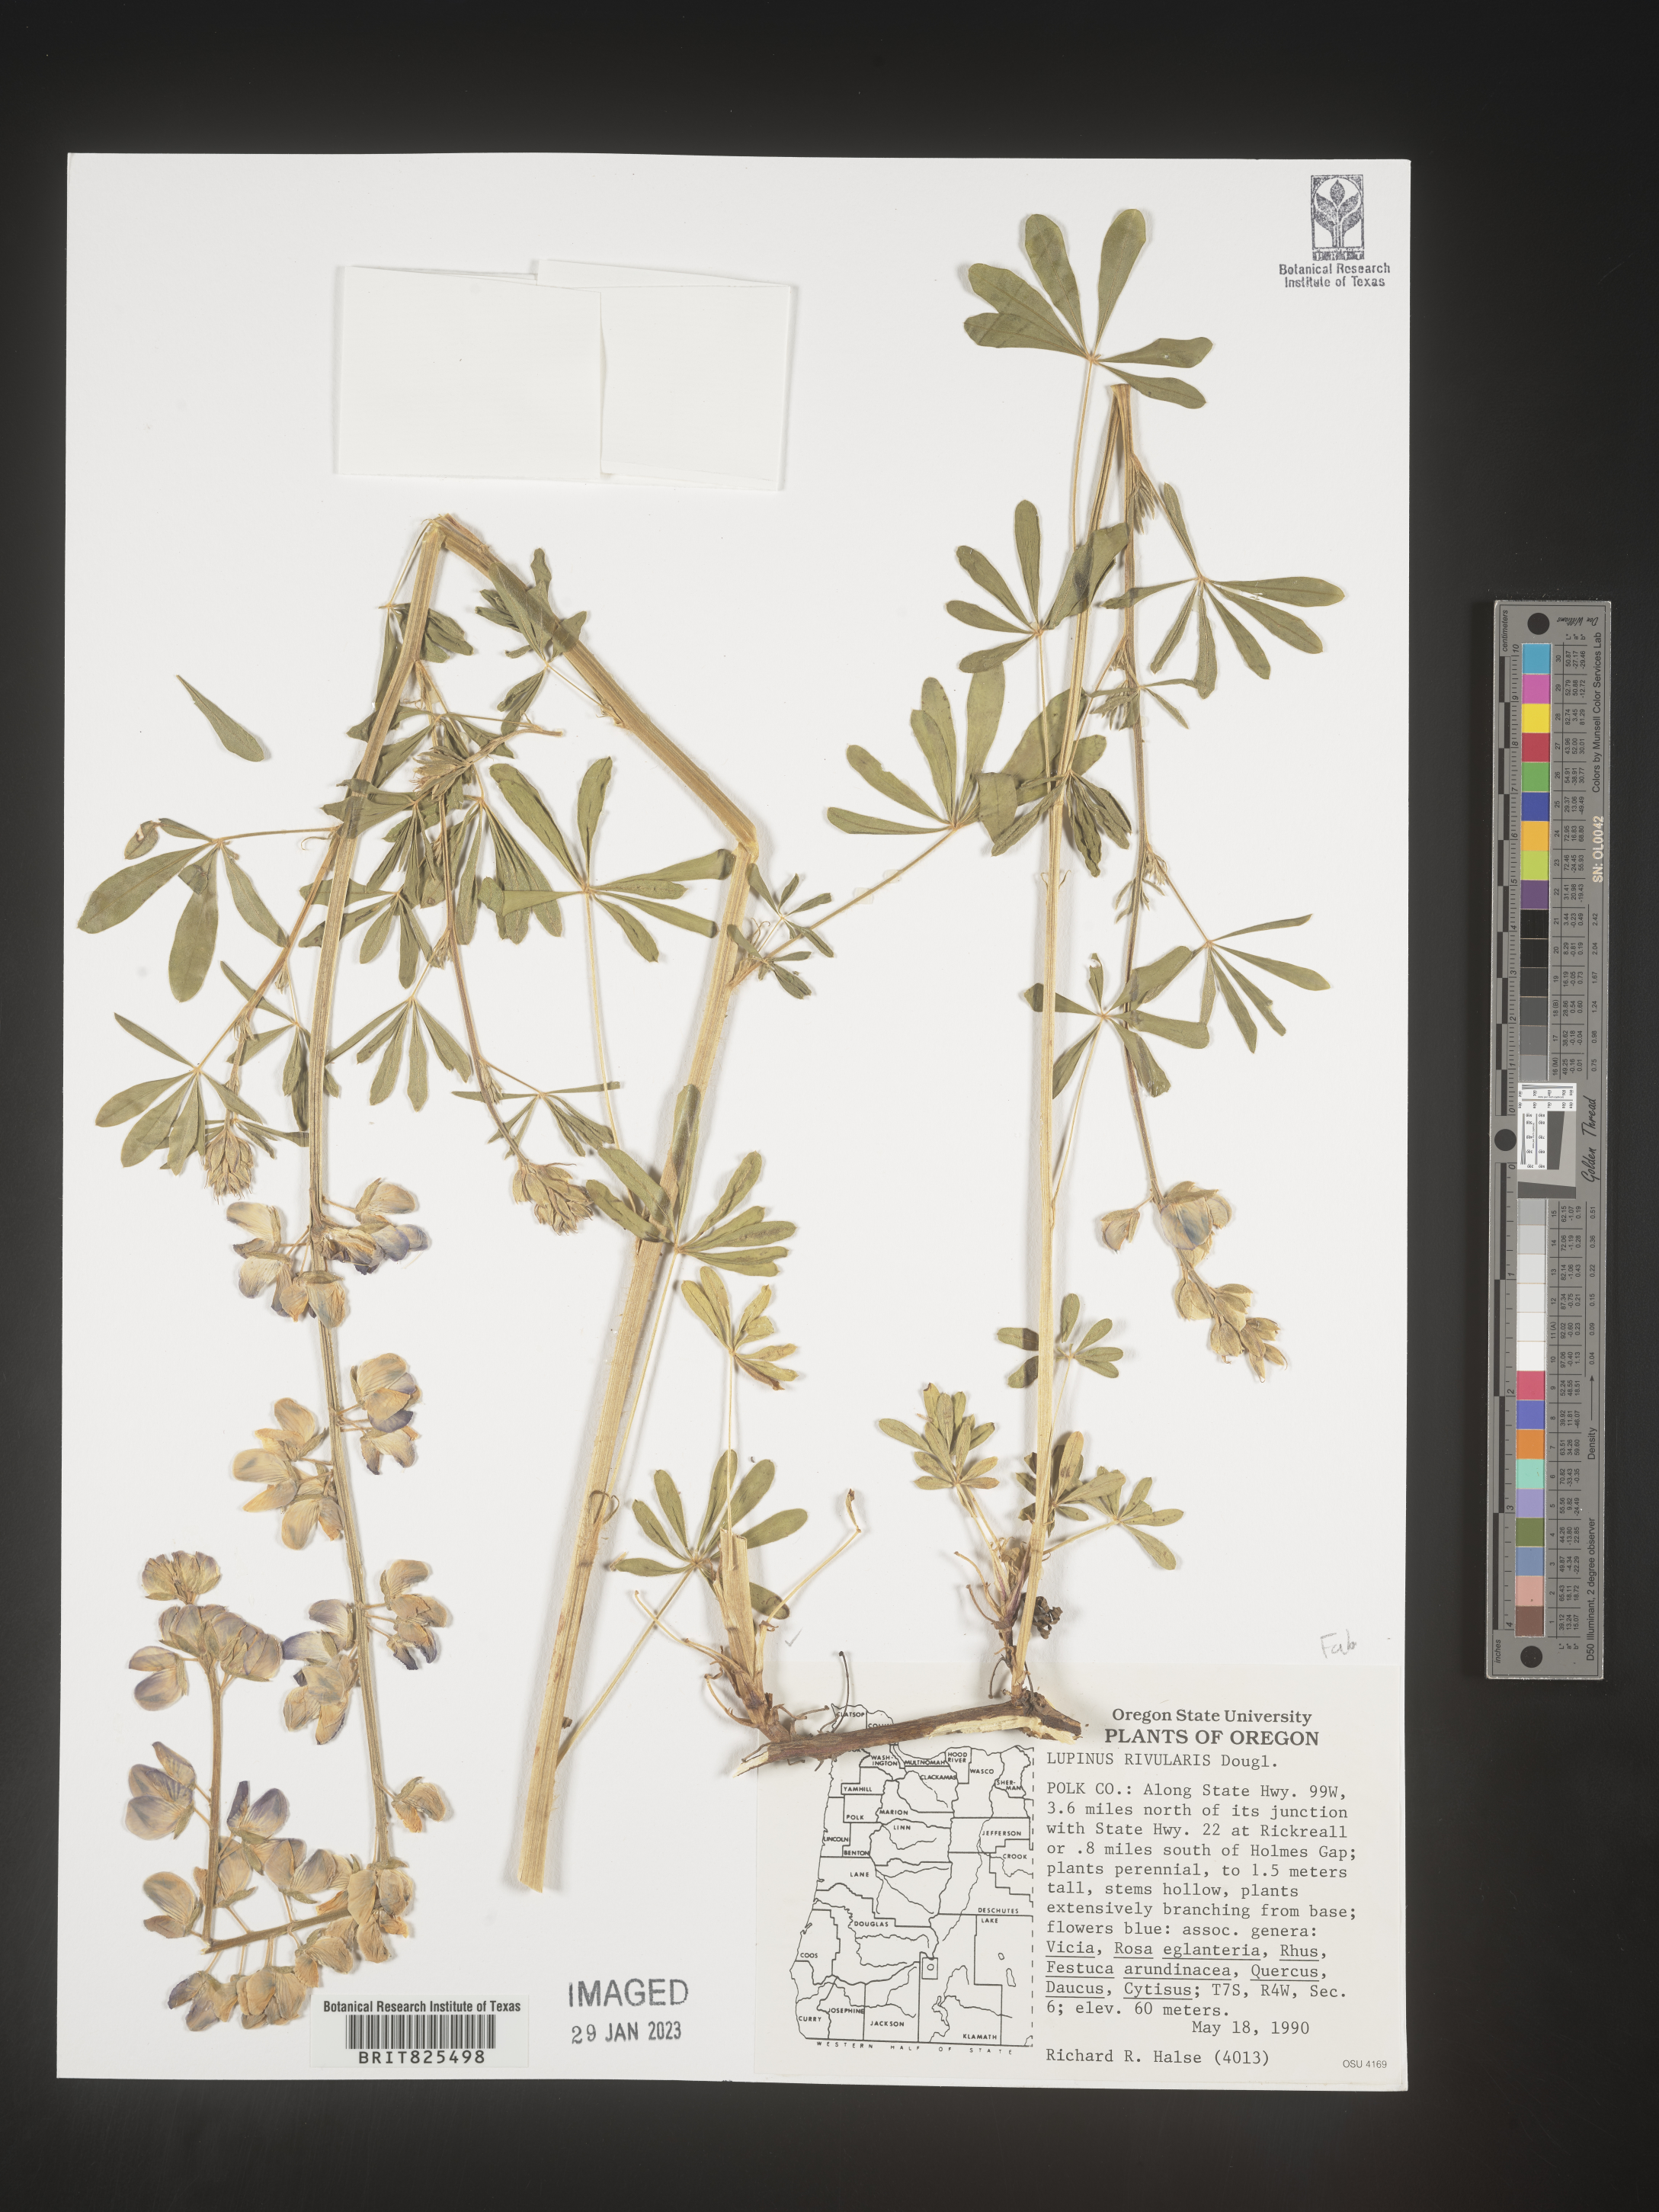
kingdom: Plantae
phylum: Tracheophyta
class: Magnoliopsida
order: Fabales
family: Fabaceae
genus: Lupinus
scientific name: Lupinus
